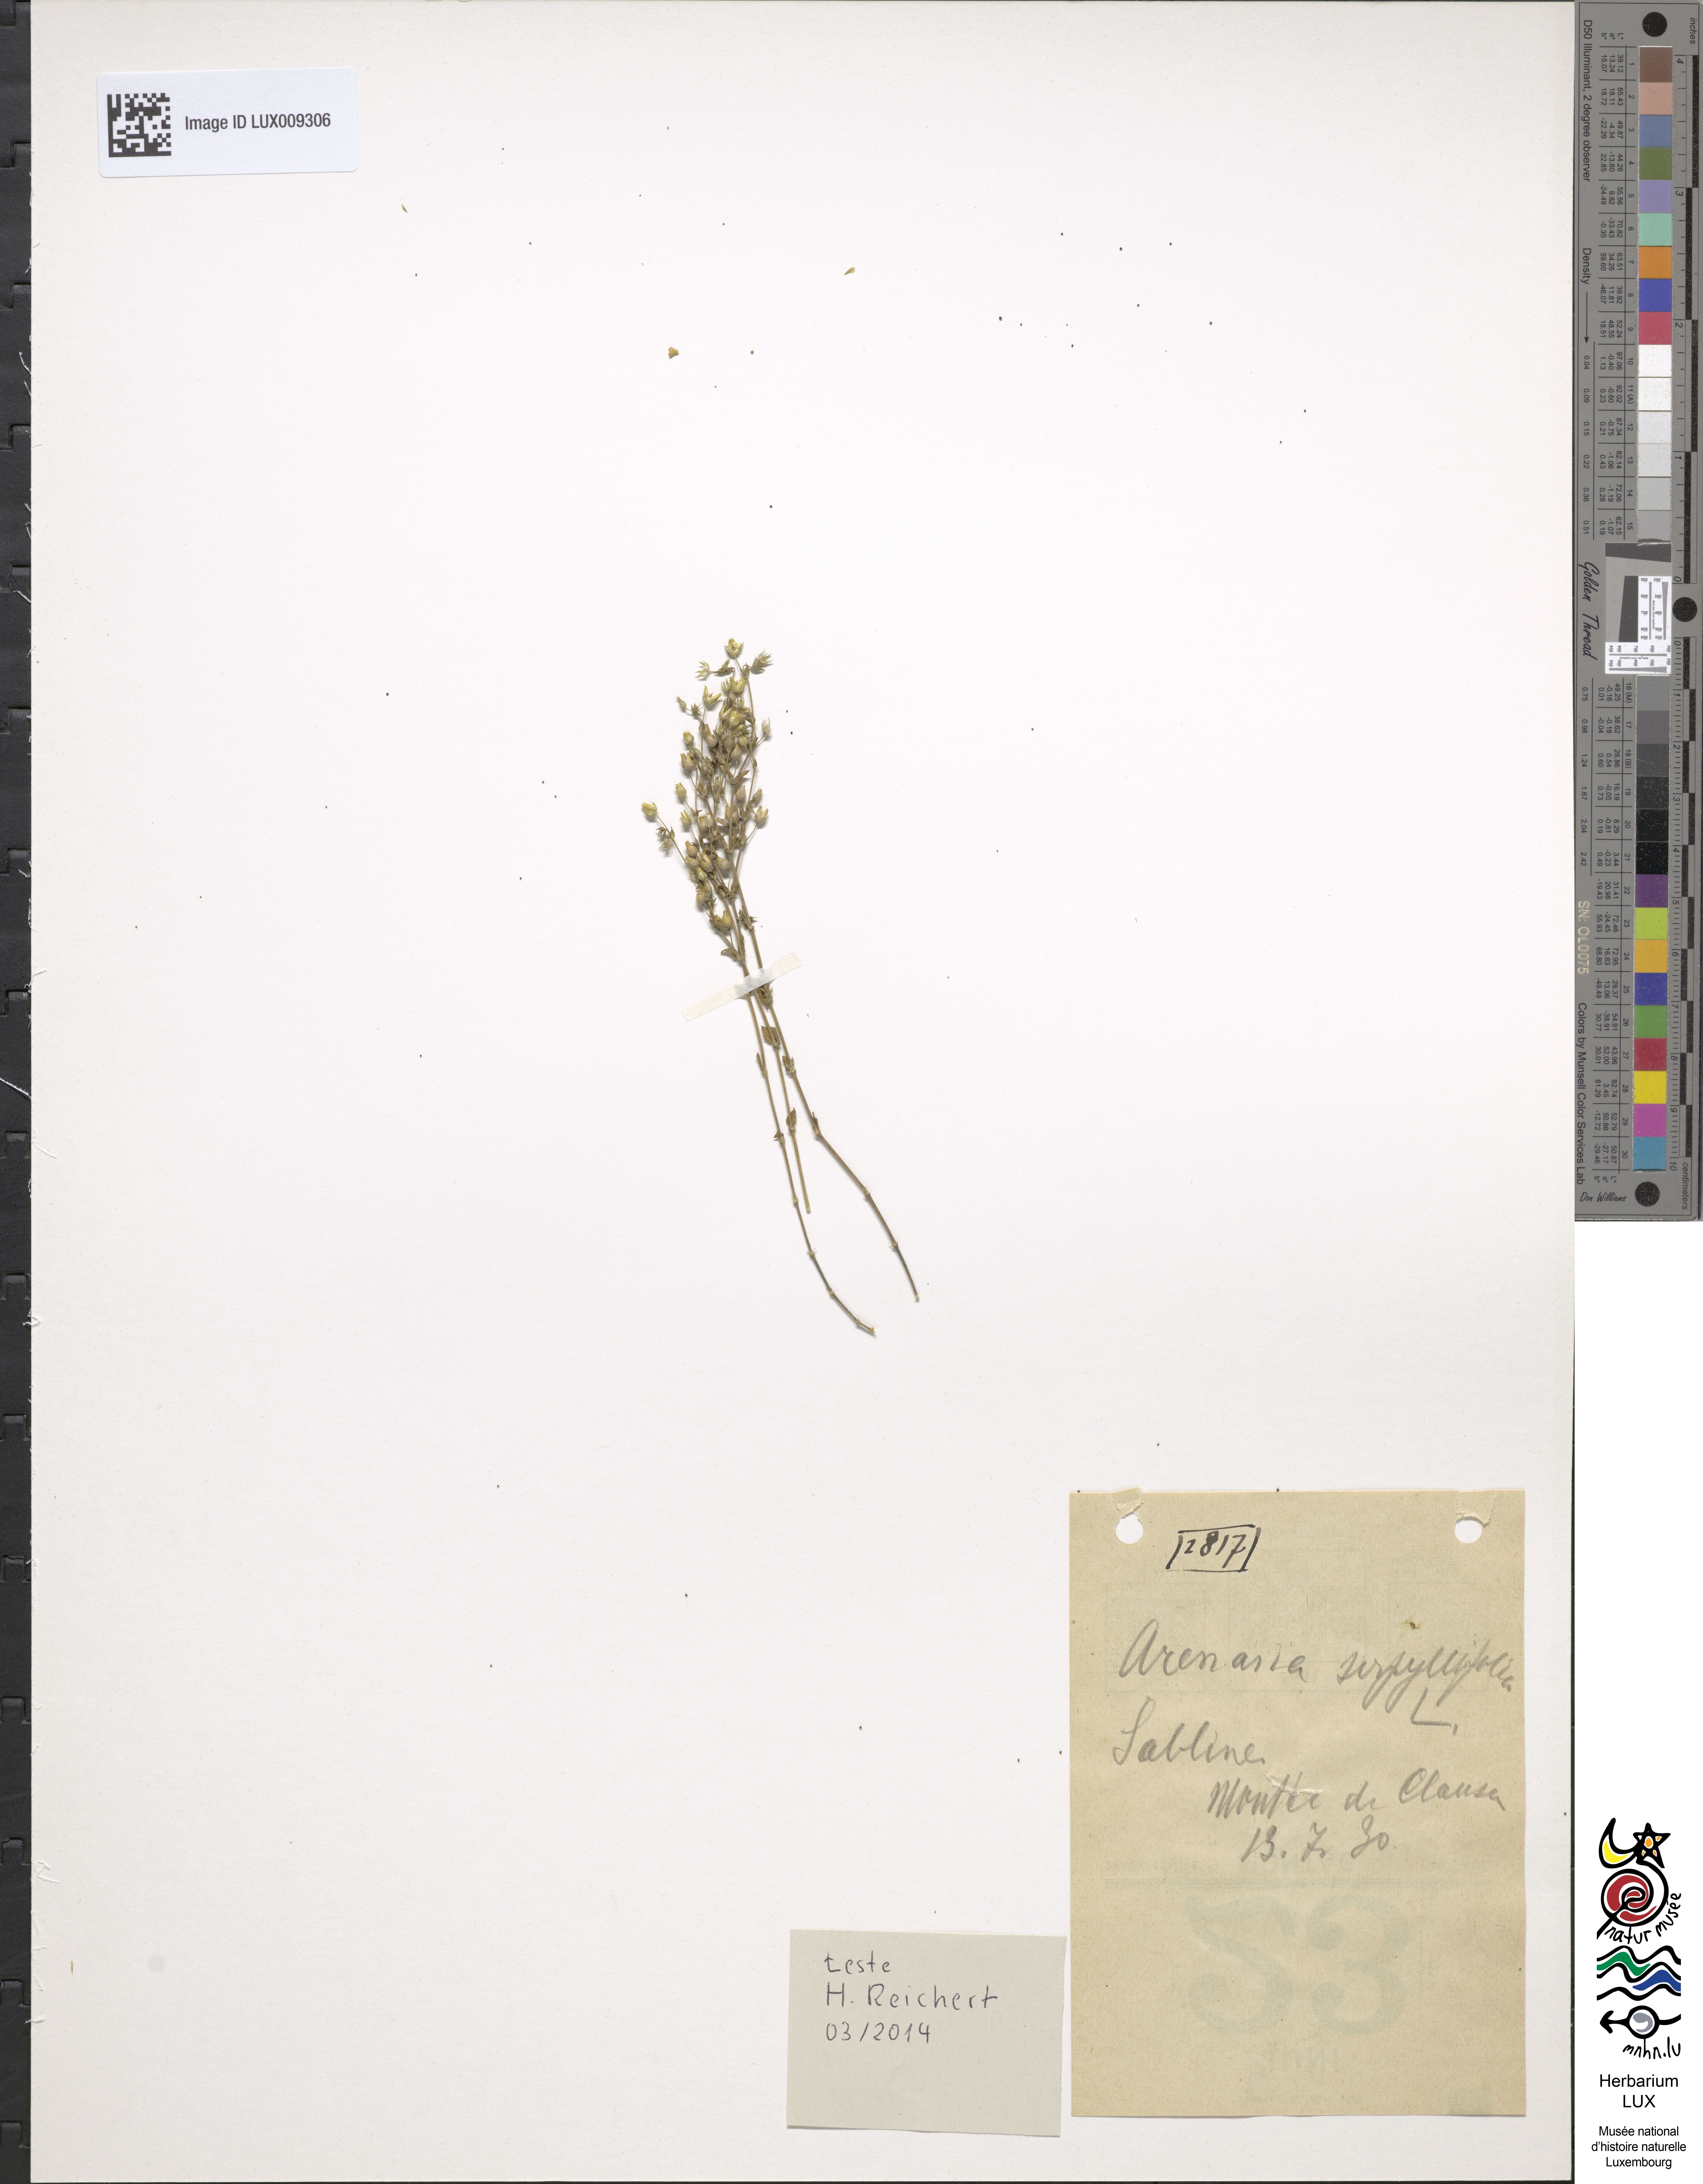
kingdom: Plantae
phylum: Tracheophyta
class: Magnoliopsida
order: Caryophyllales
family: Caryophyllaceae
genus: Arenaria
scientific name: Arenaria serpyllifolia
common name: Thyme-leaved sandwort
